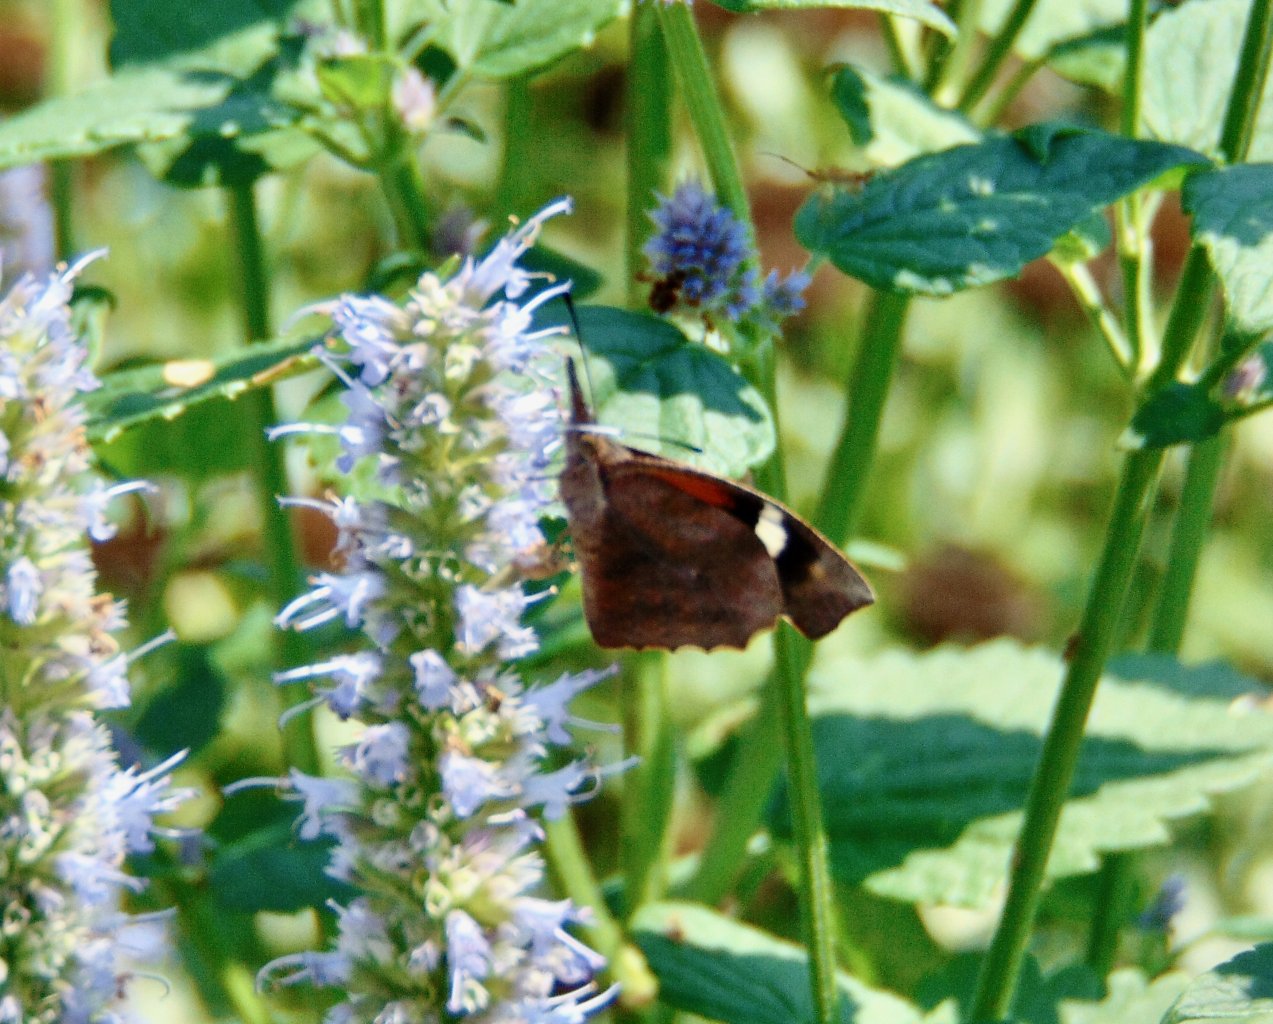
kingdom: Animalia
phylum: Arthropoda
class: Insecta
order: Lepidoptera
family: Nymphalidae
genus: Libytheana
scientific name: Libytheana carinenta
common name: American Snout
